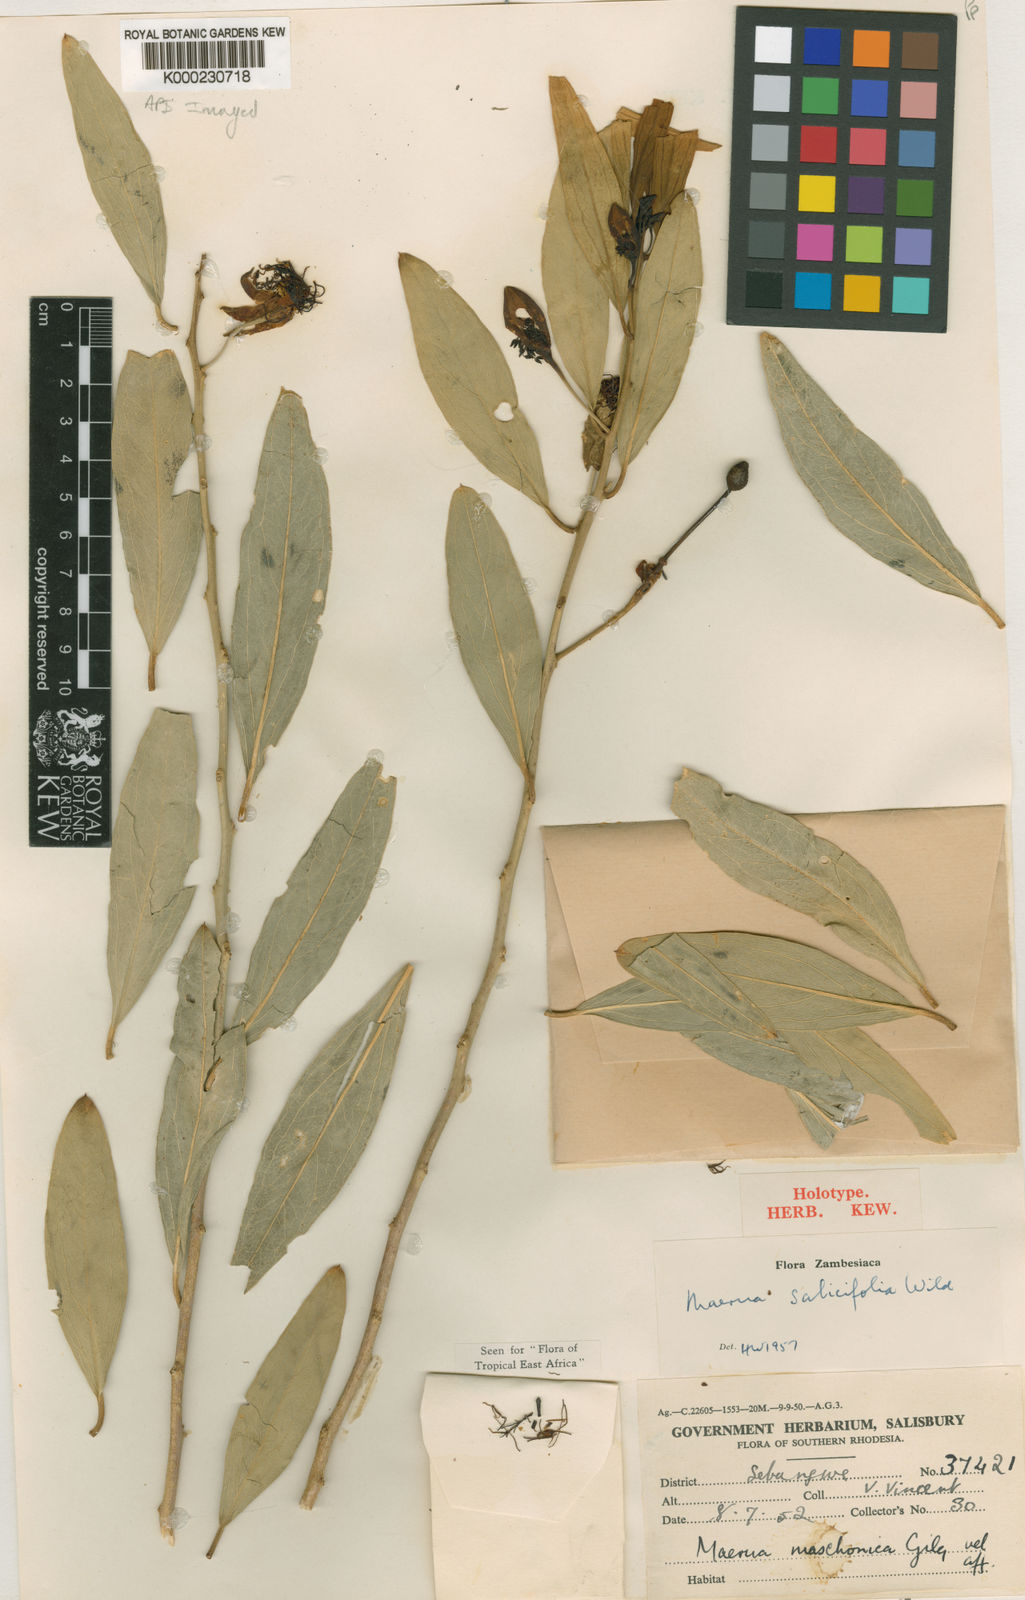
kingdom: Plantae
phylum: Tracheophyta
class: Magnoliopsida
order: Brassicales
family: Capparaceae
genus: Maerua
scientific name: Maerua salicifolia
